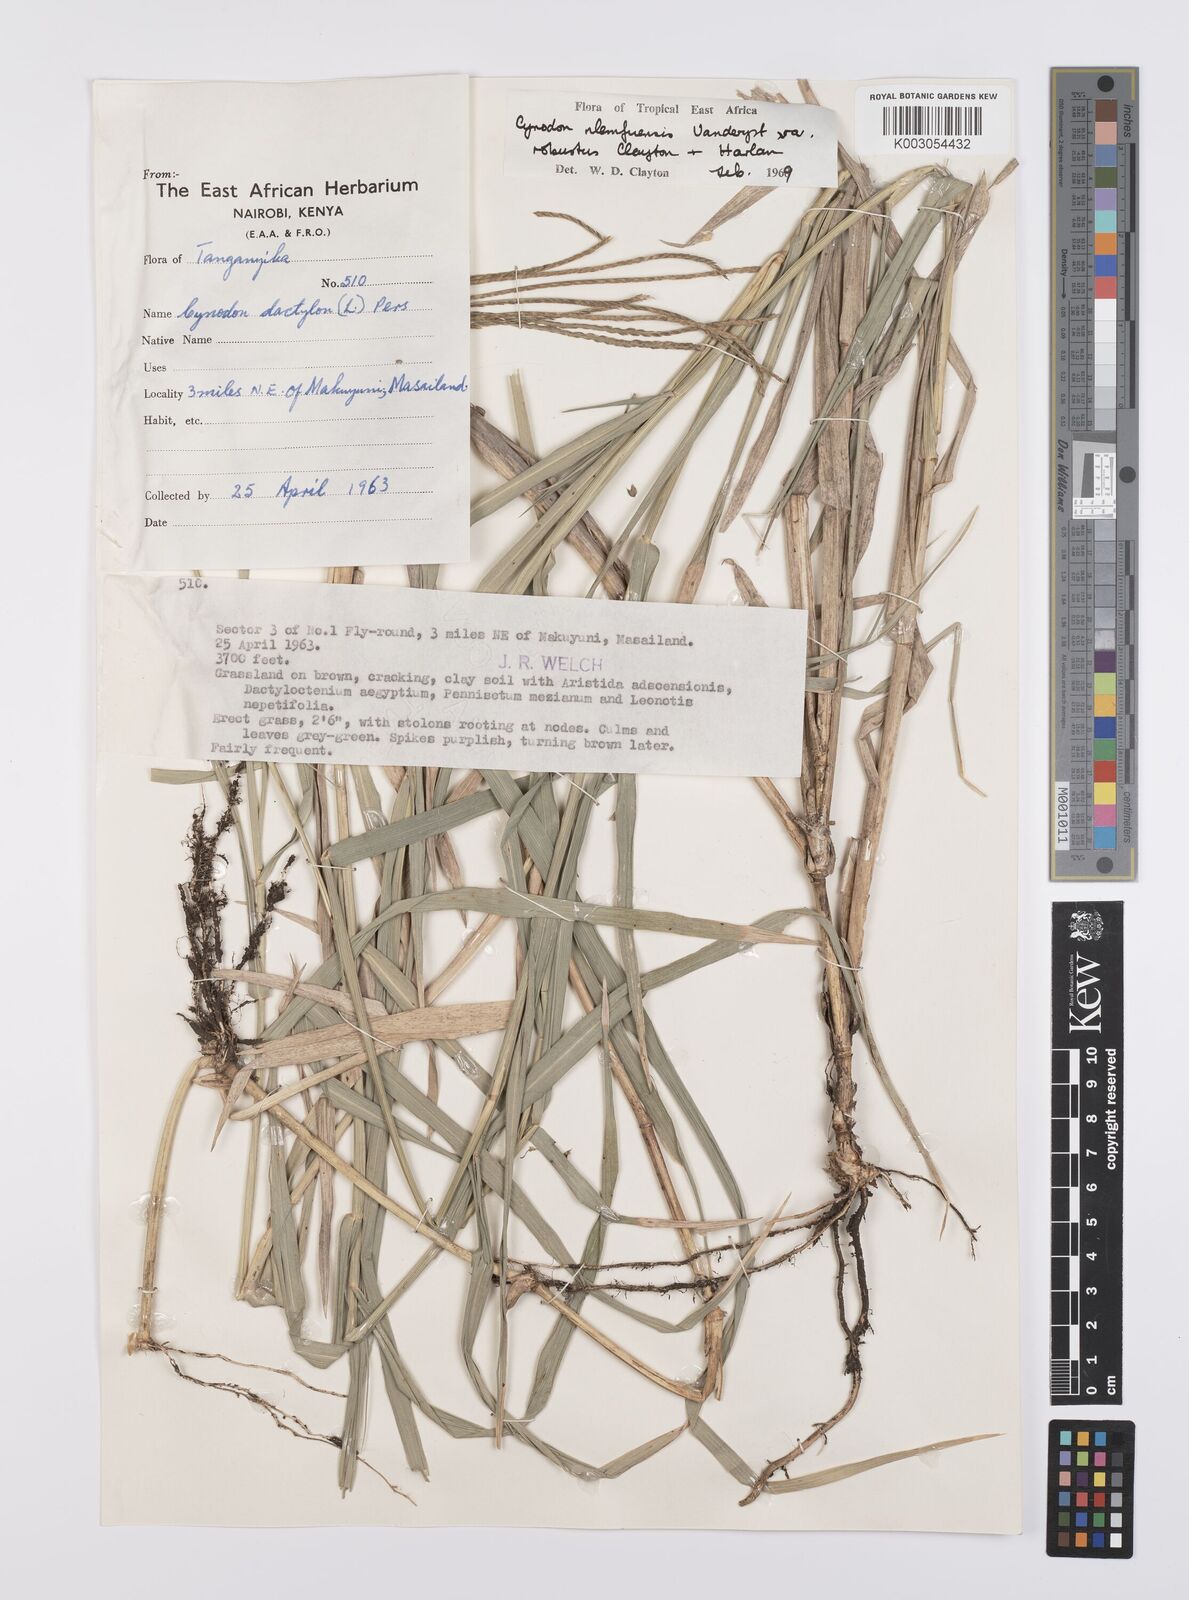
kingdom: Plantae
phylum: Tracheophyta
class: Liliopsida
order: Poales
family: Poaceae
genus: Cynodon
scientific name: Cynodon nlemfuensis
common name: African bermudagrass
